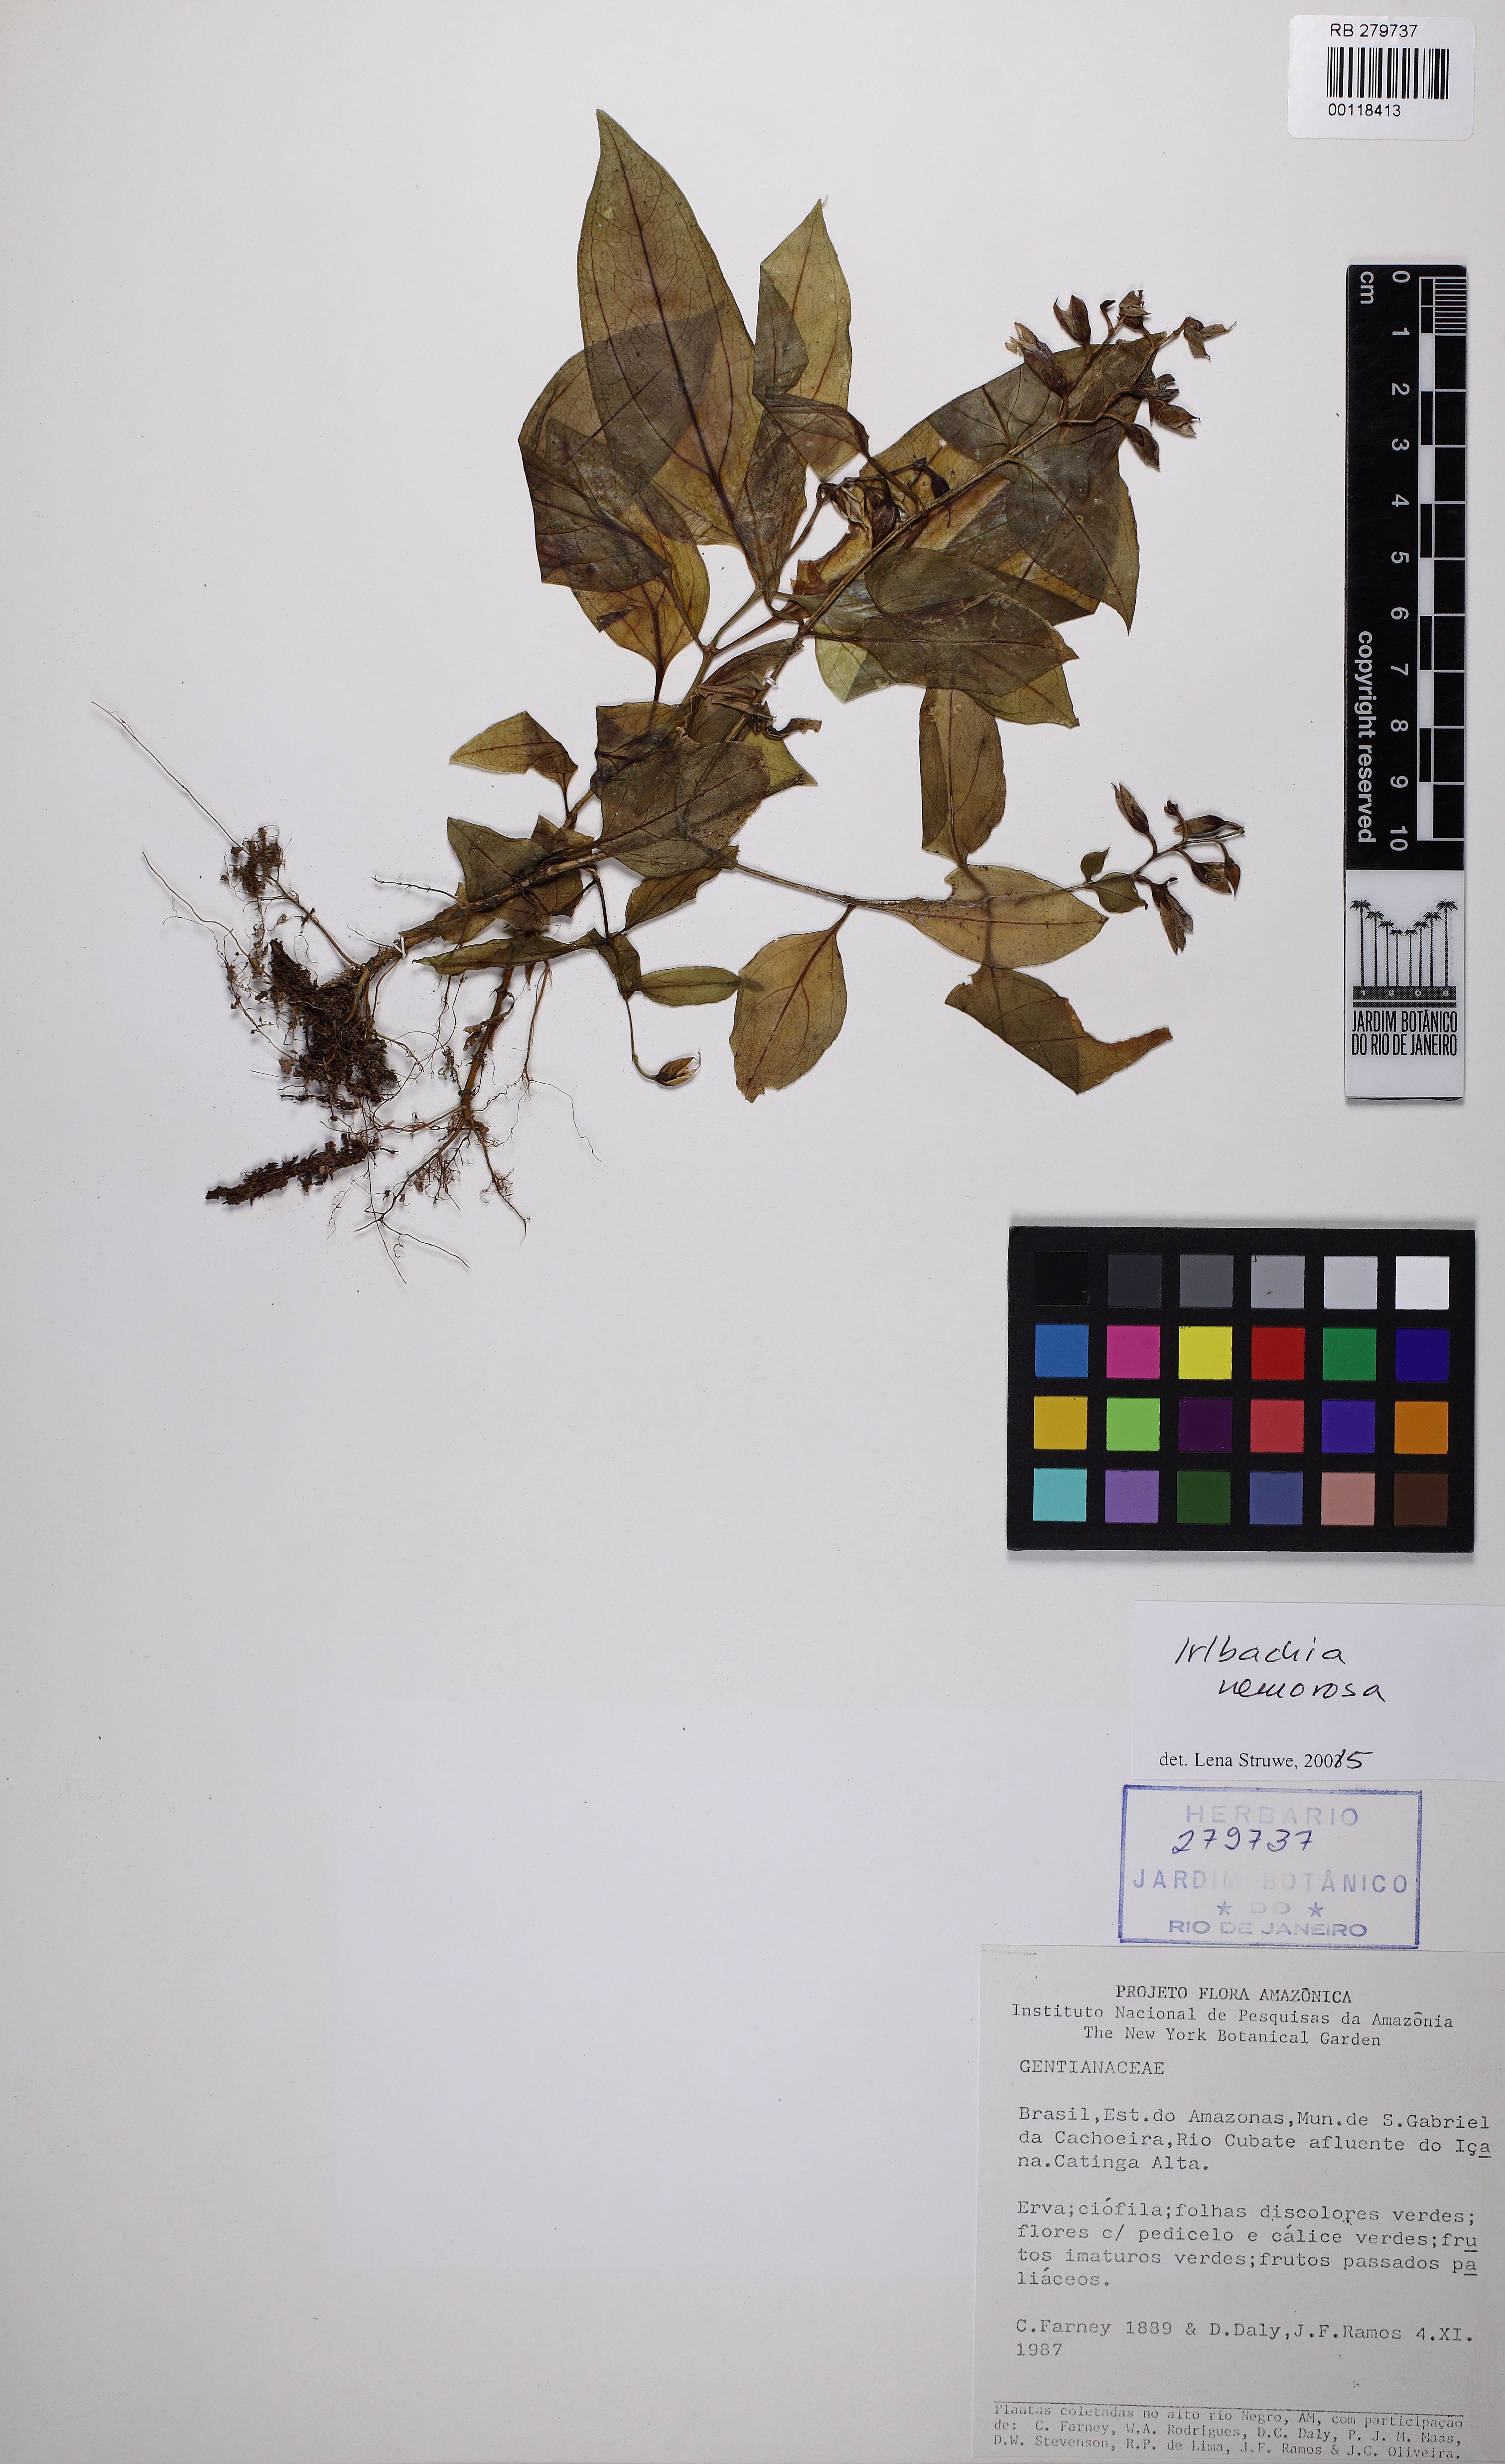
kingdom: Plantae
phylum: Tracheophyta
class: Magnoliopsida
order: Gentianales
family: Gentianaceae
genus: Irlbachia
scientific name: Irlbachia nemorosa
